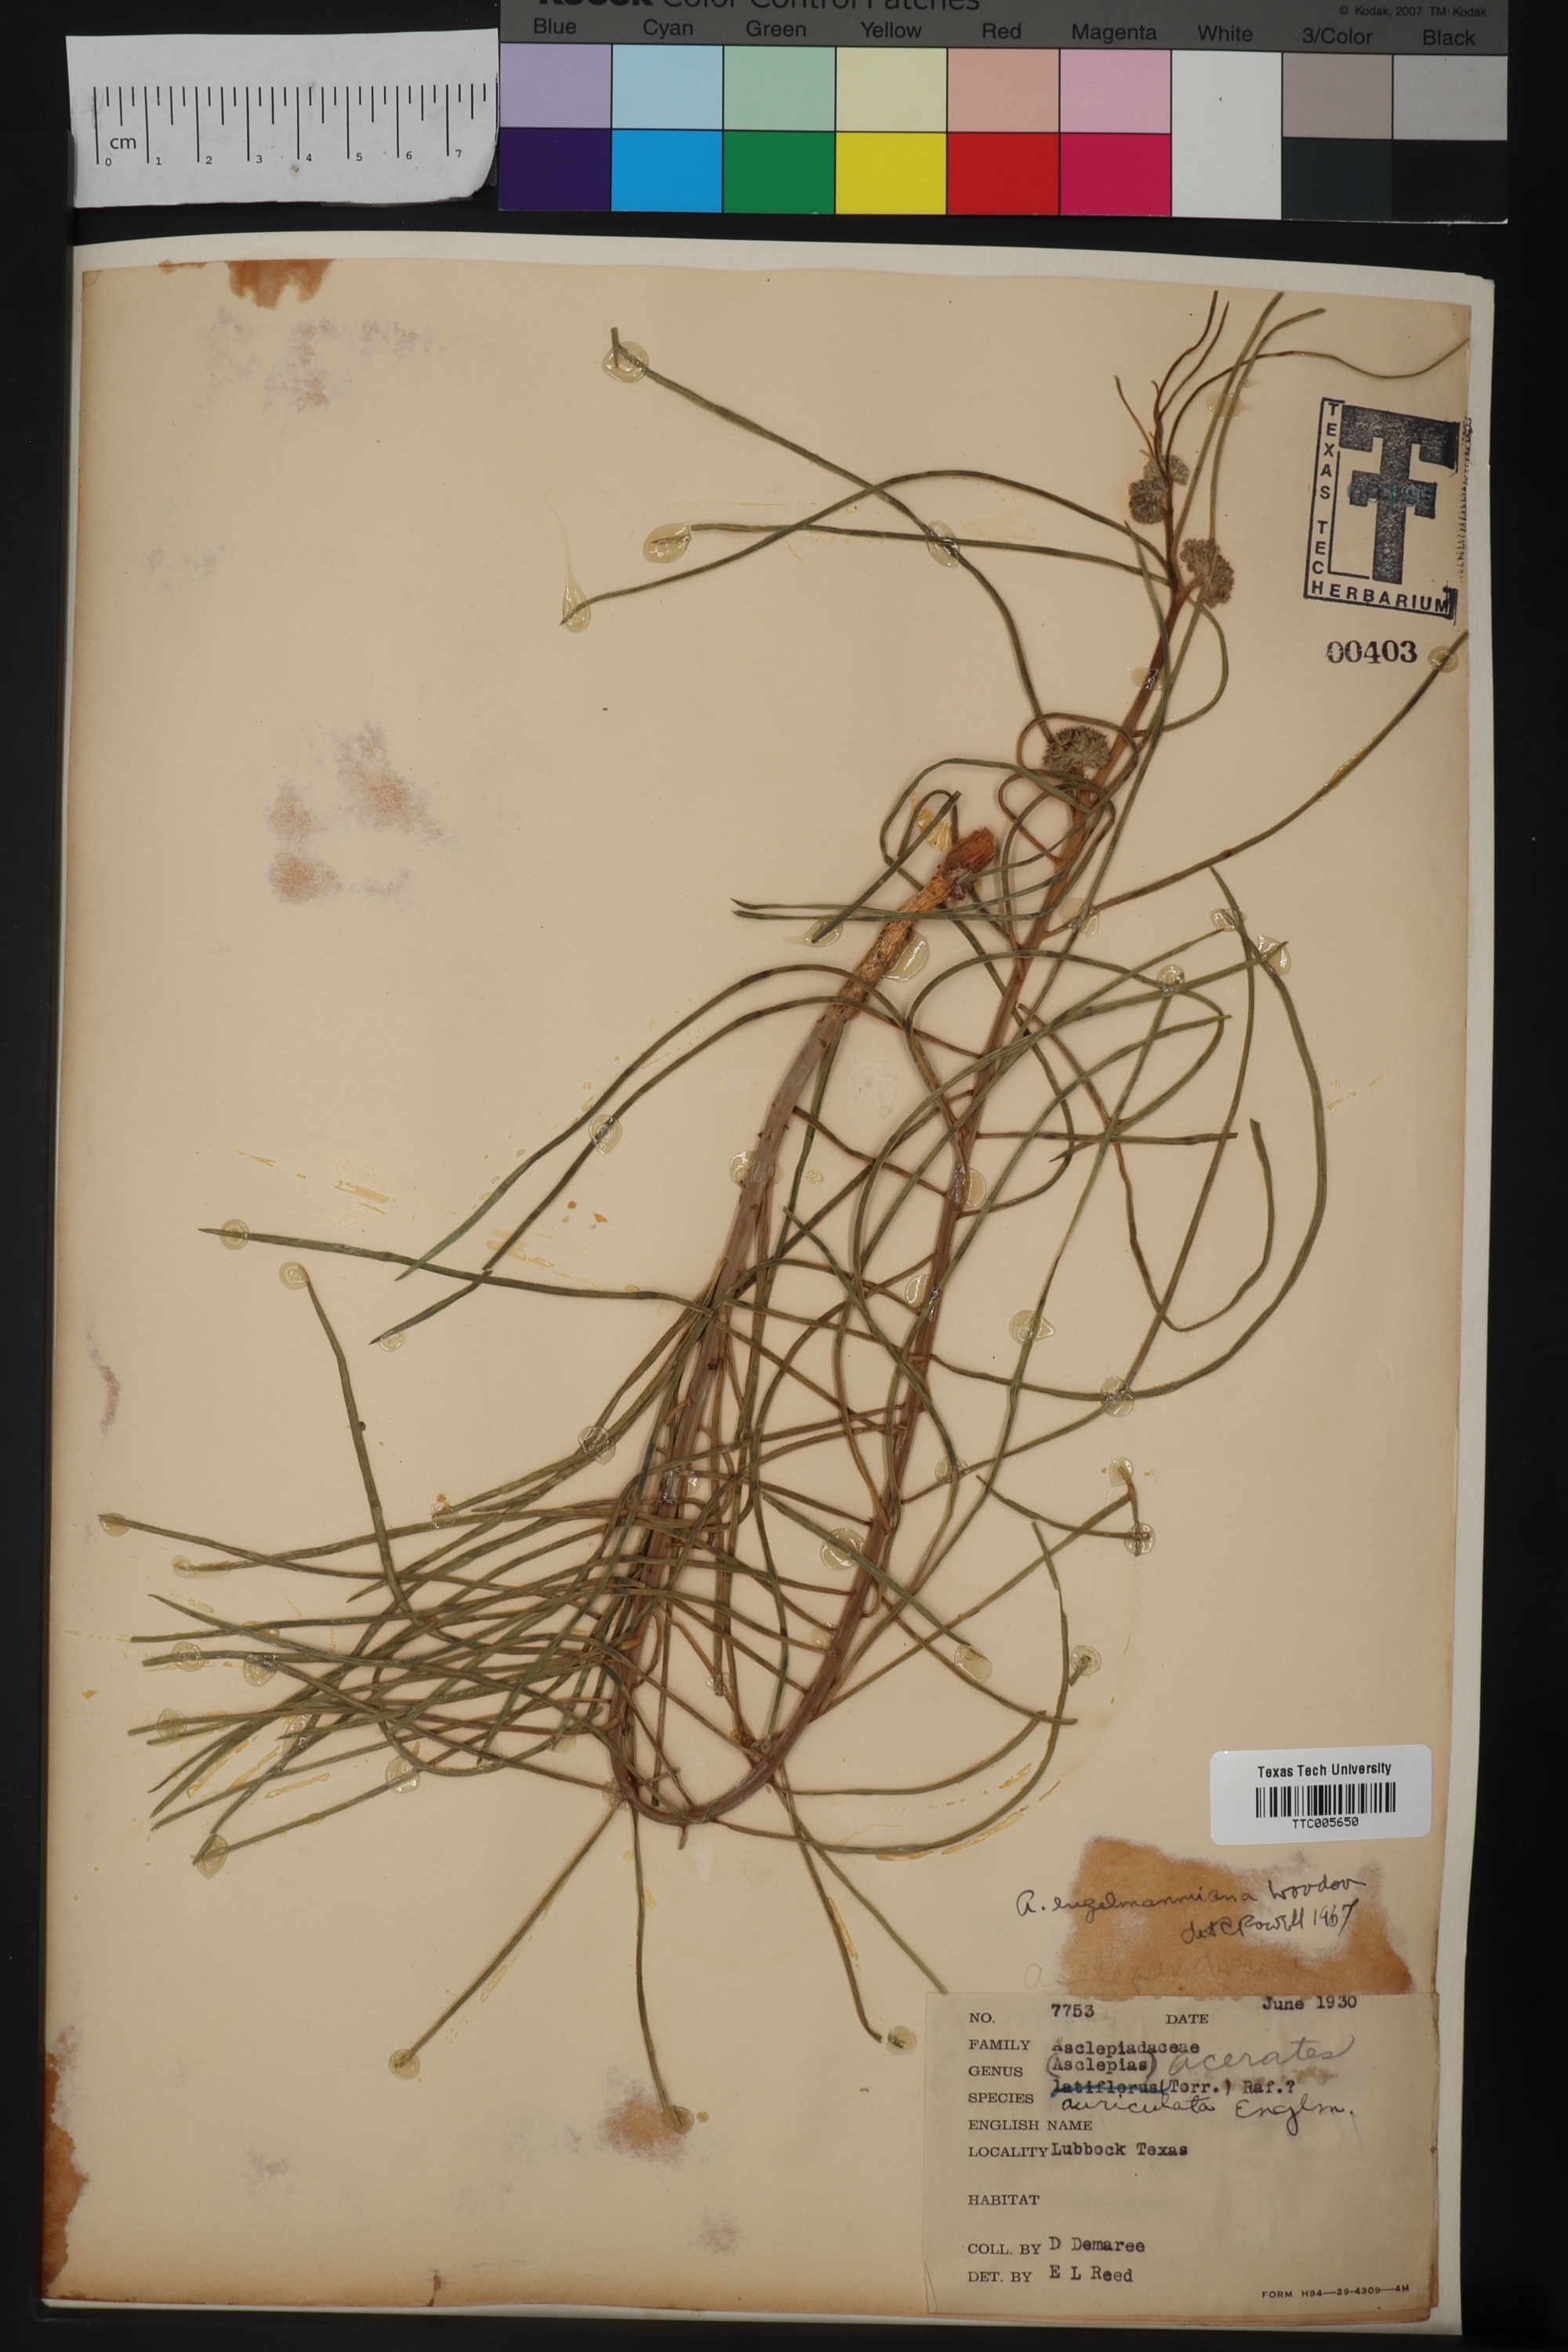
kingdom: Plantae
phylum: Tracheophyta
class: Magnoliopsida
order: Gentianales
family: Apocynaceae
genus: Asclepias
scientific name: Asclepias engelmanniana
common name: Engelmann's milkweed
